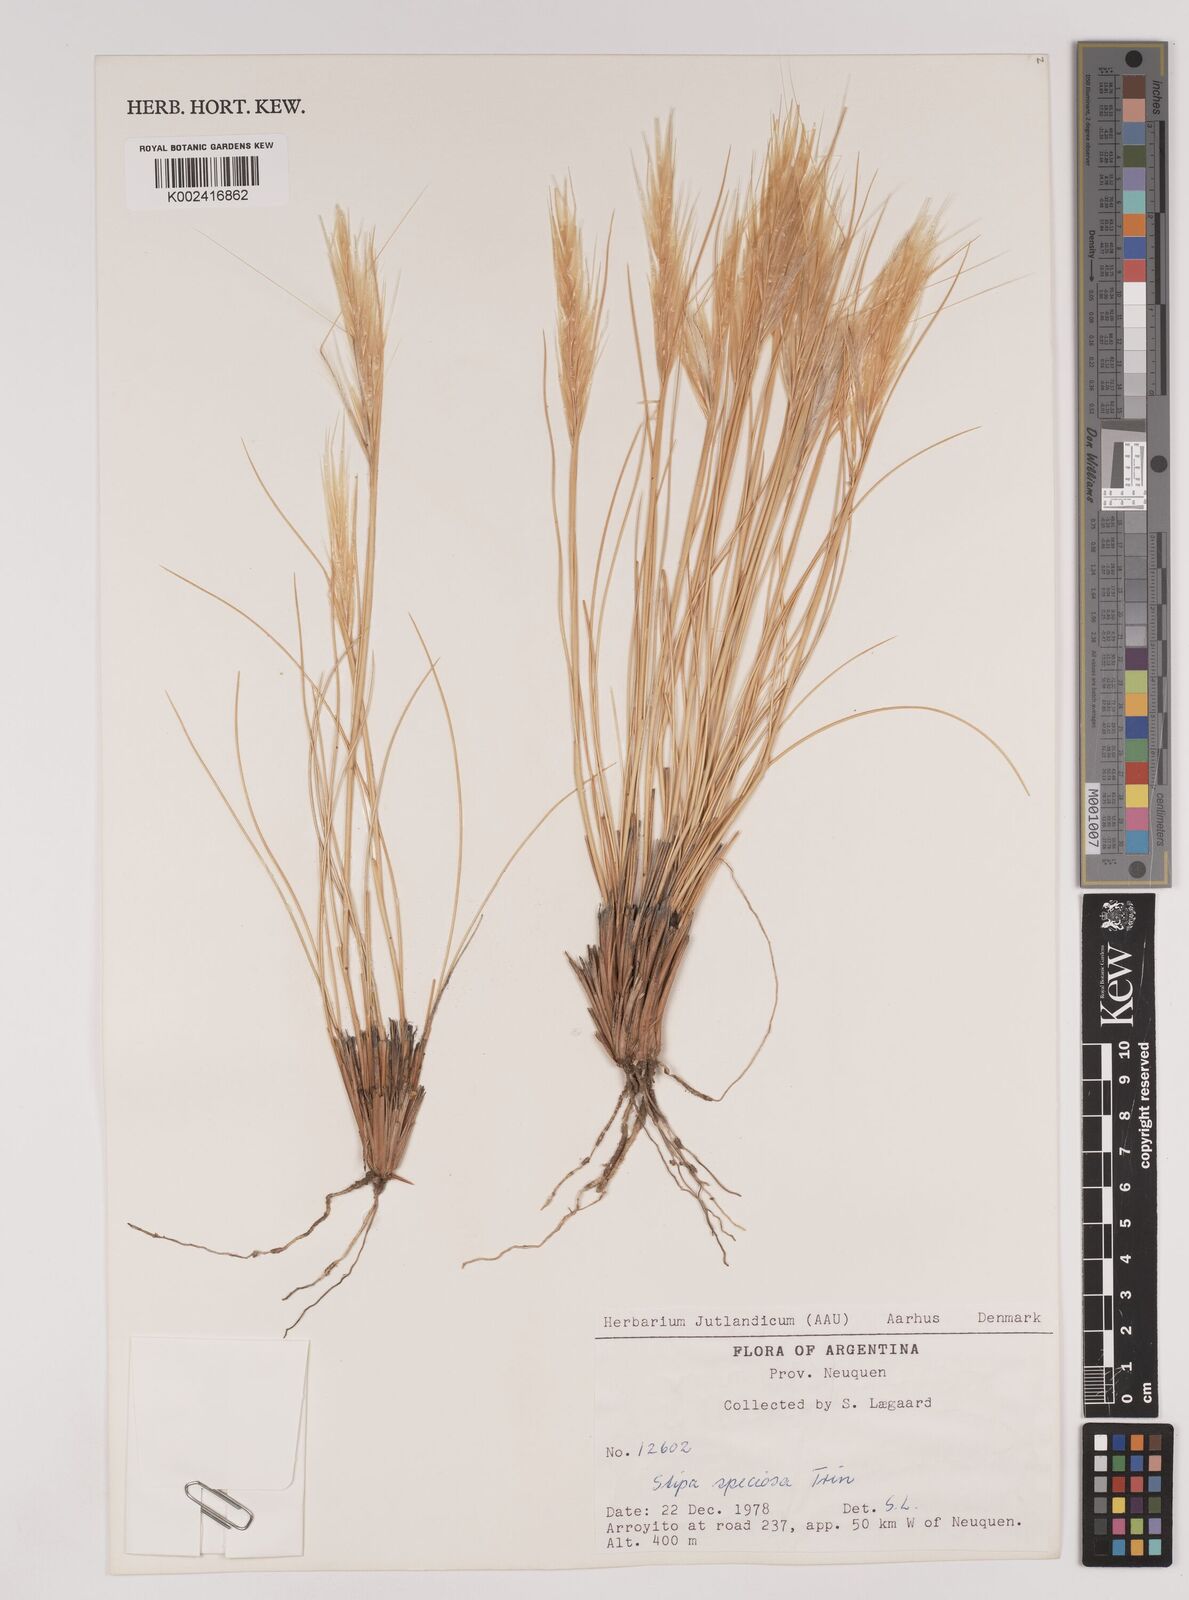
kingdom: Plantae
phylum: Tracheophyta
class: Liliopsida
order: Poales
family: Poaceae
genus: Pappostipa
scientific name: Pappostipa speciosa
